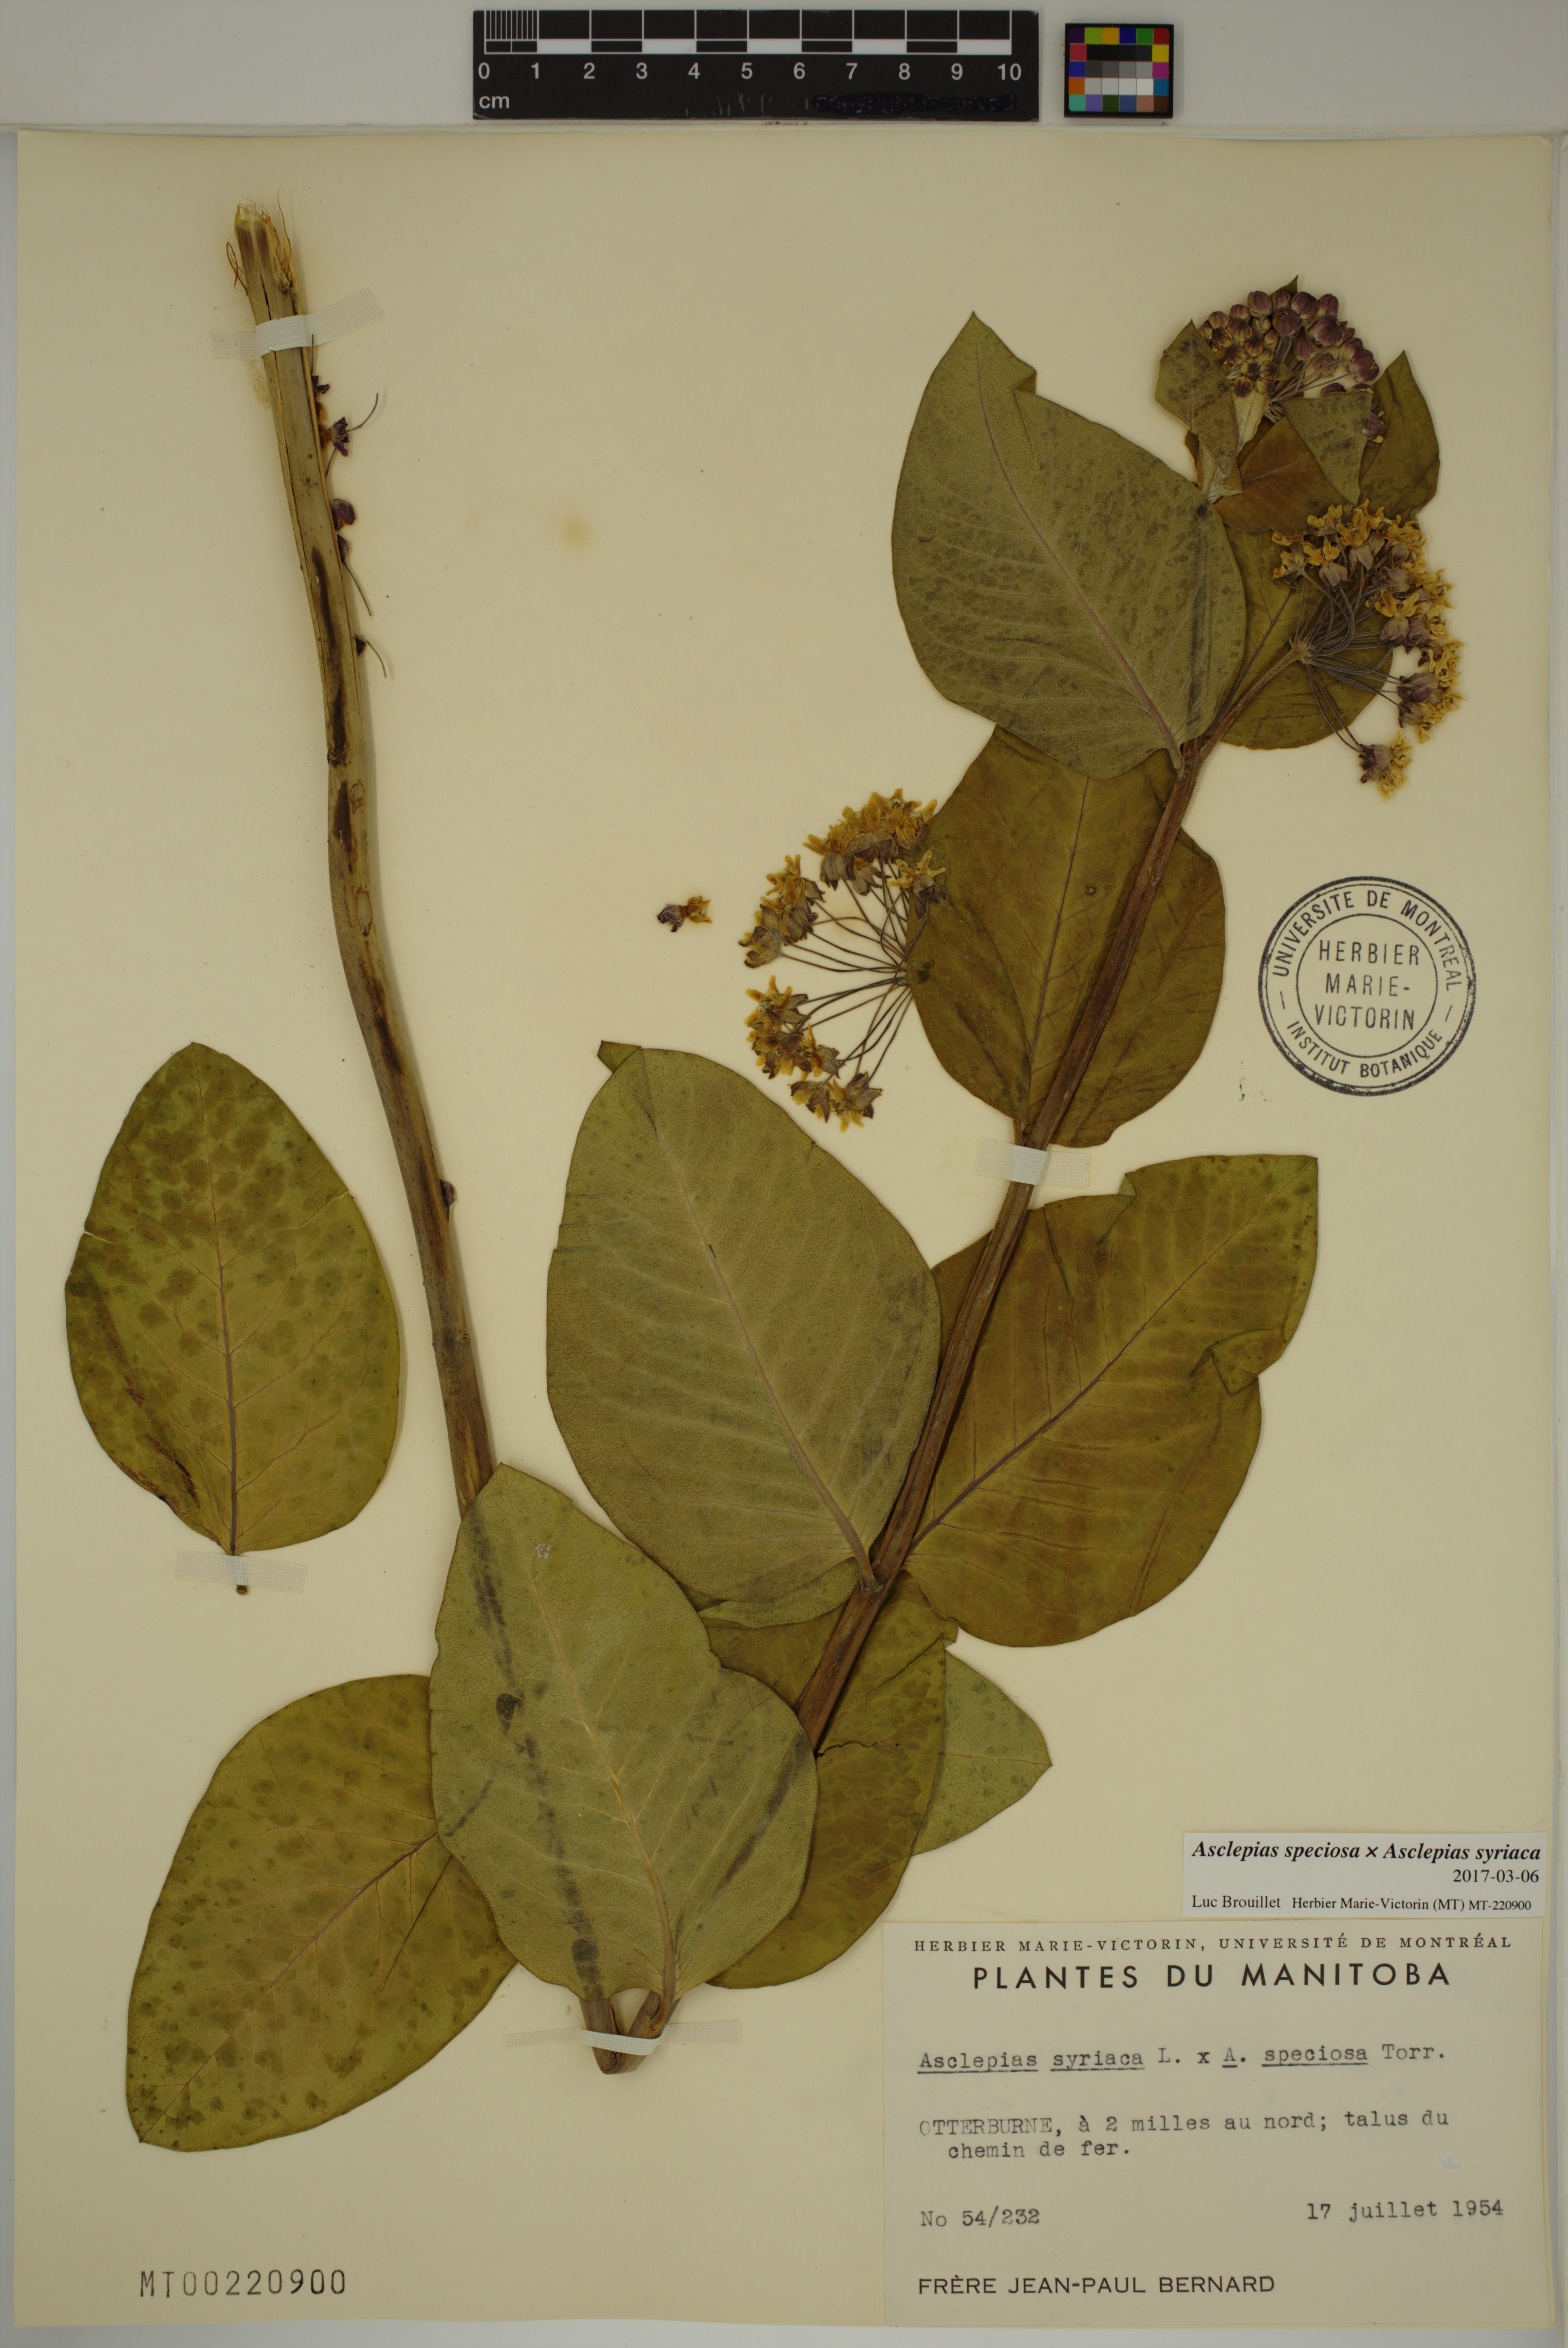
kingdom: Plantae
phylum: Tracheophyta
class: Magnoliopsida
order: Gentianales
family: Apocynaceae
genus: Asclepias
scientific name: Asclepias speciosa
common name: Showy milkweed
